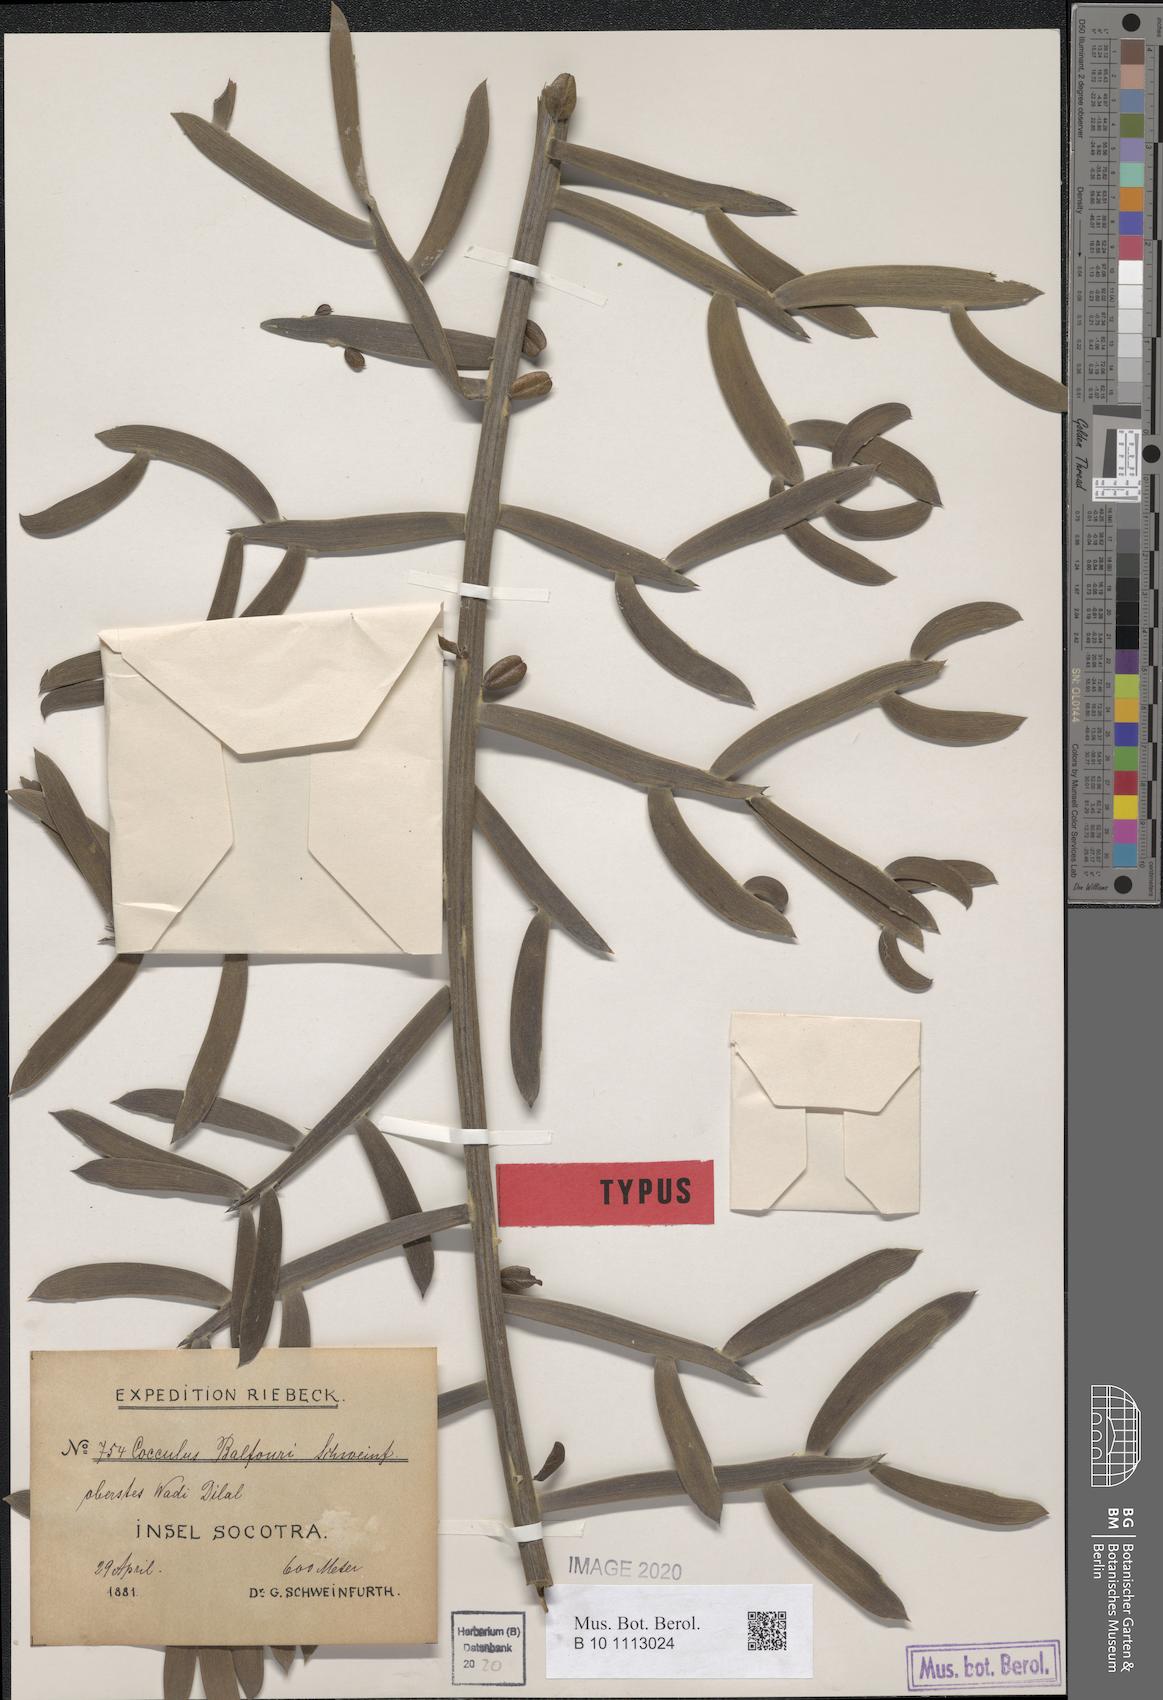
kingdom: Plantae
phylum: Tracheophyta
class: Magnoliopsida
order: Ranunculales
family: Menispermaceae
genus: Cocculus
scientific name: Cocculus balfourii
